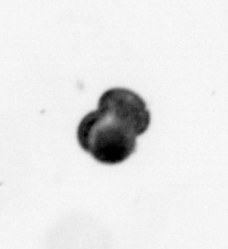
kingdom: Chromista
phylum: Foraminifera
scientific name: Foraminifera
